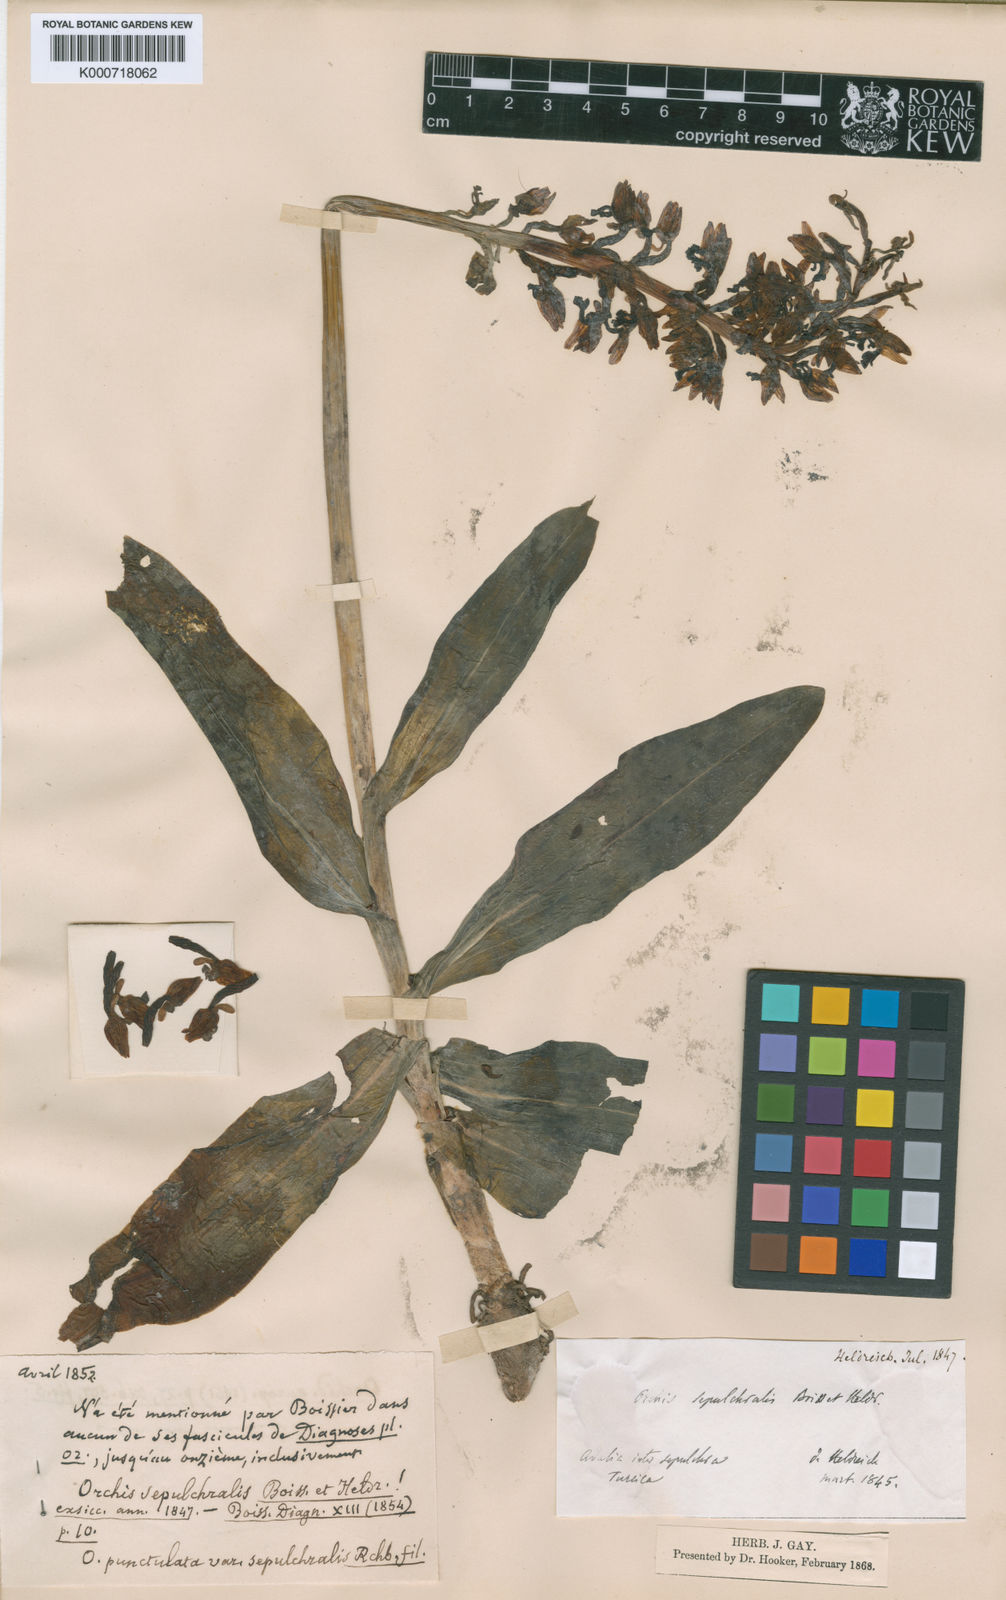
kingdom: Plantae
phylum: Tracheophyta
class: Liliopsida
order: Asparagales
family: Orchidaceae
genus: Orchis
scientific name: Orchis punctulata
